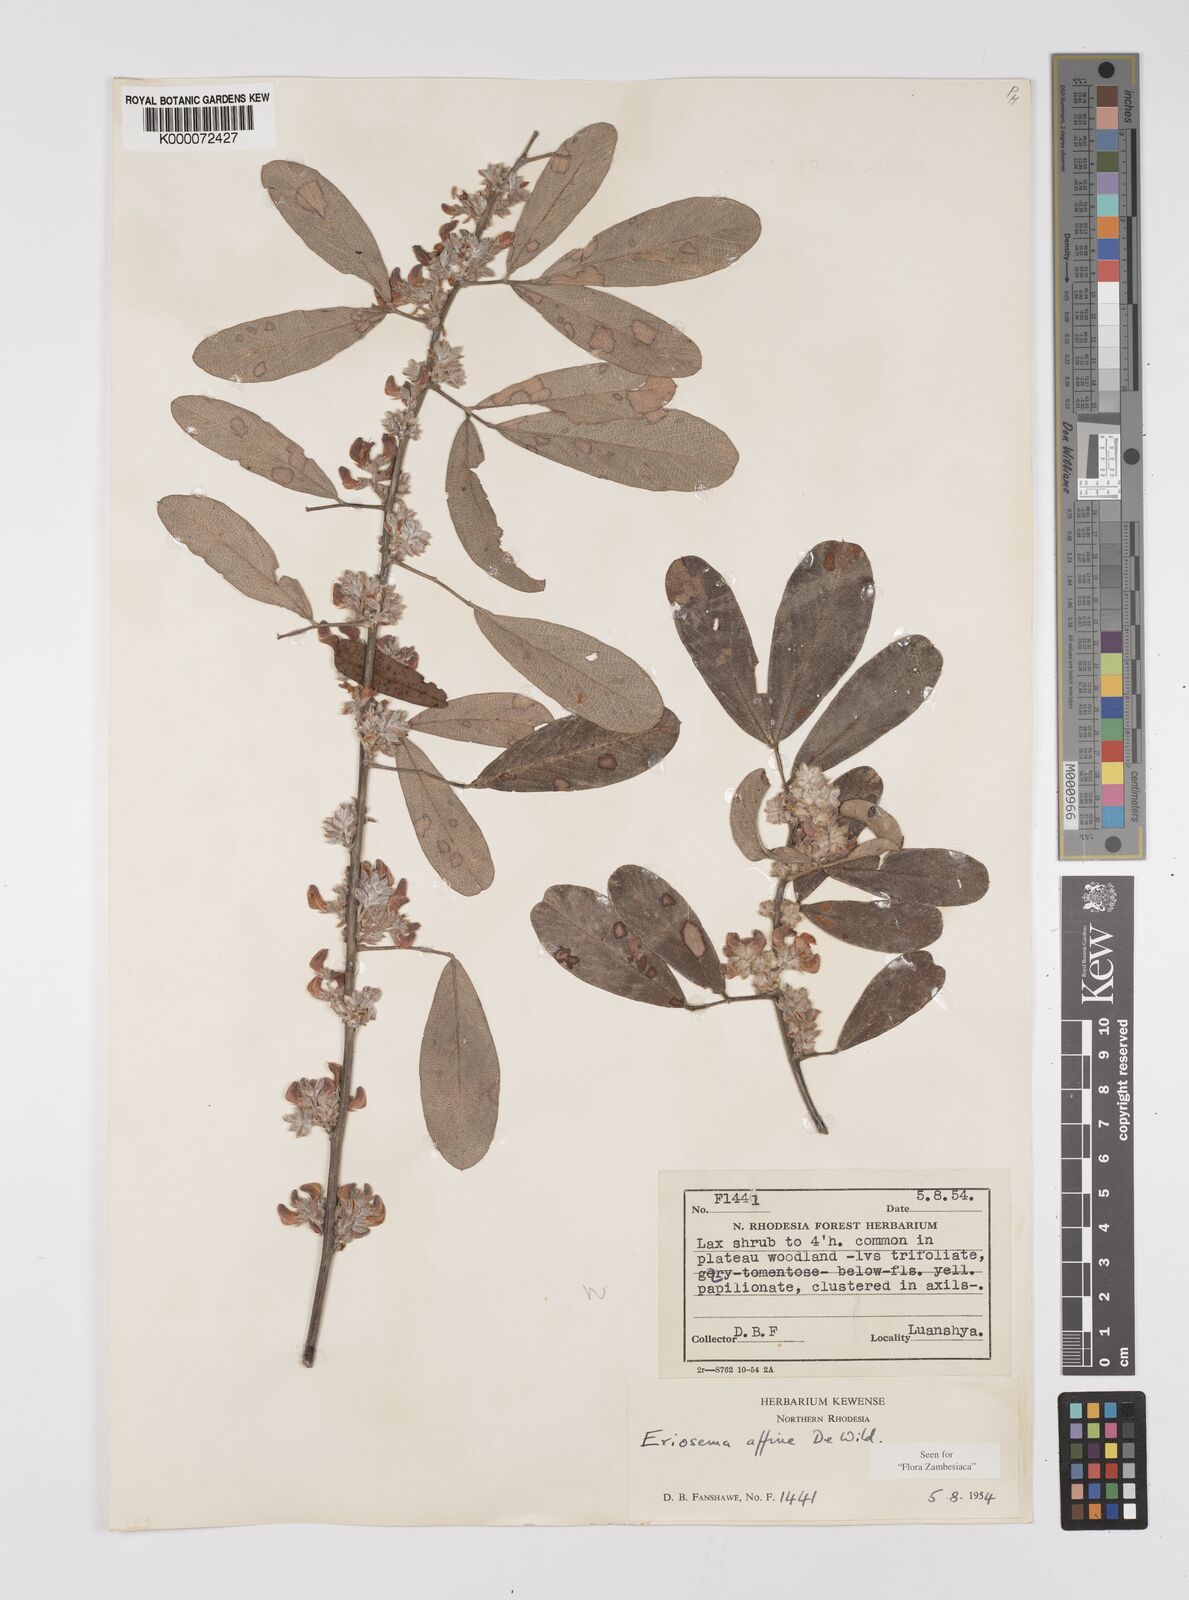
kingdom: Plantae
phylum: Tracheophyta
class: Magnoliopsida
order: Fabales
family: Fabaceae
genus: Eriosema
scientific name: Eriosema affine
